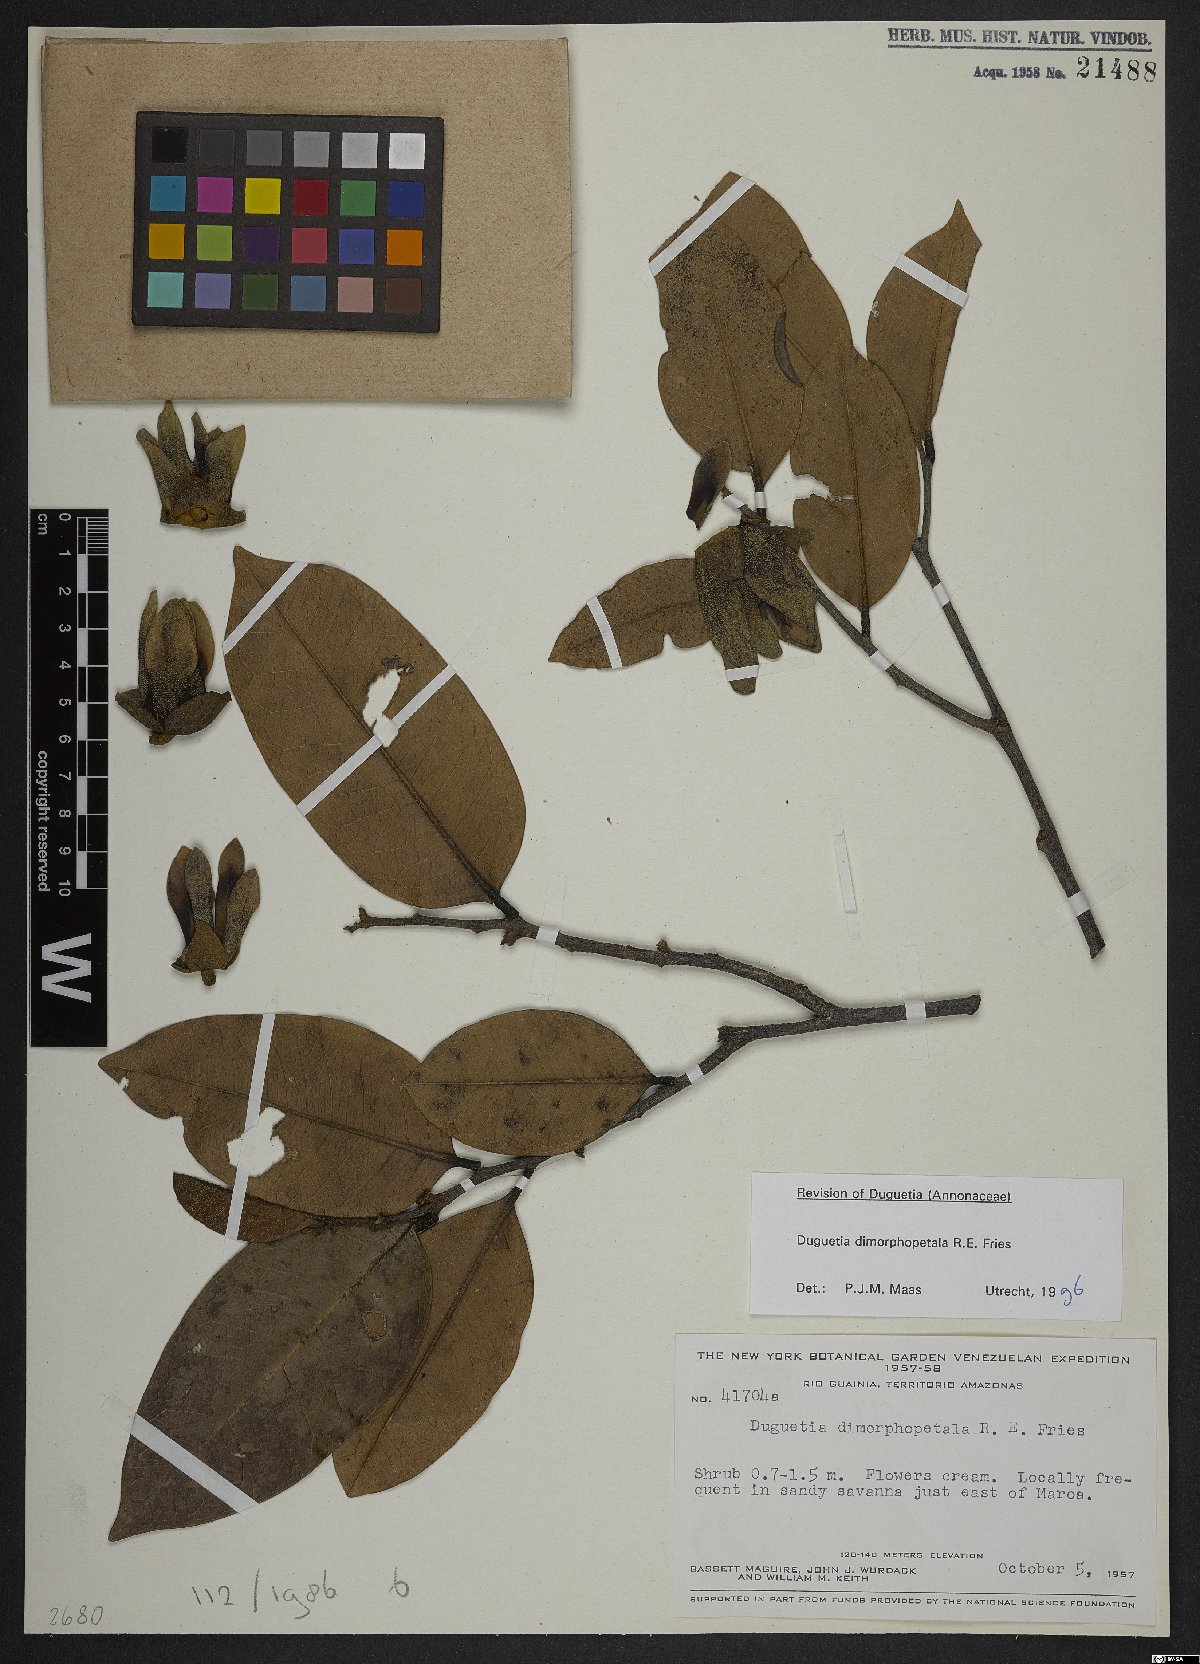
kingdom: Plantae
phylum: Tracheophyta
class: Magnoliopsida
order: Magnoliales
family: Annonaceae
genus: Duguetia
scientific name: Duguetia dimorphopetala
